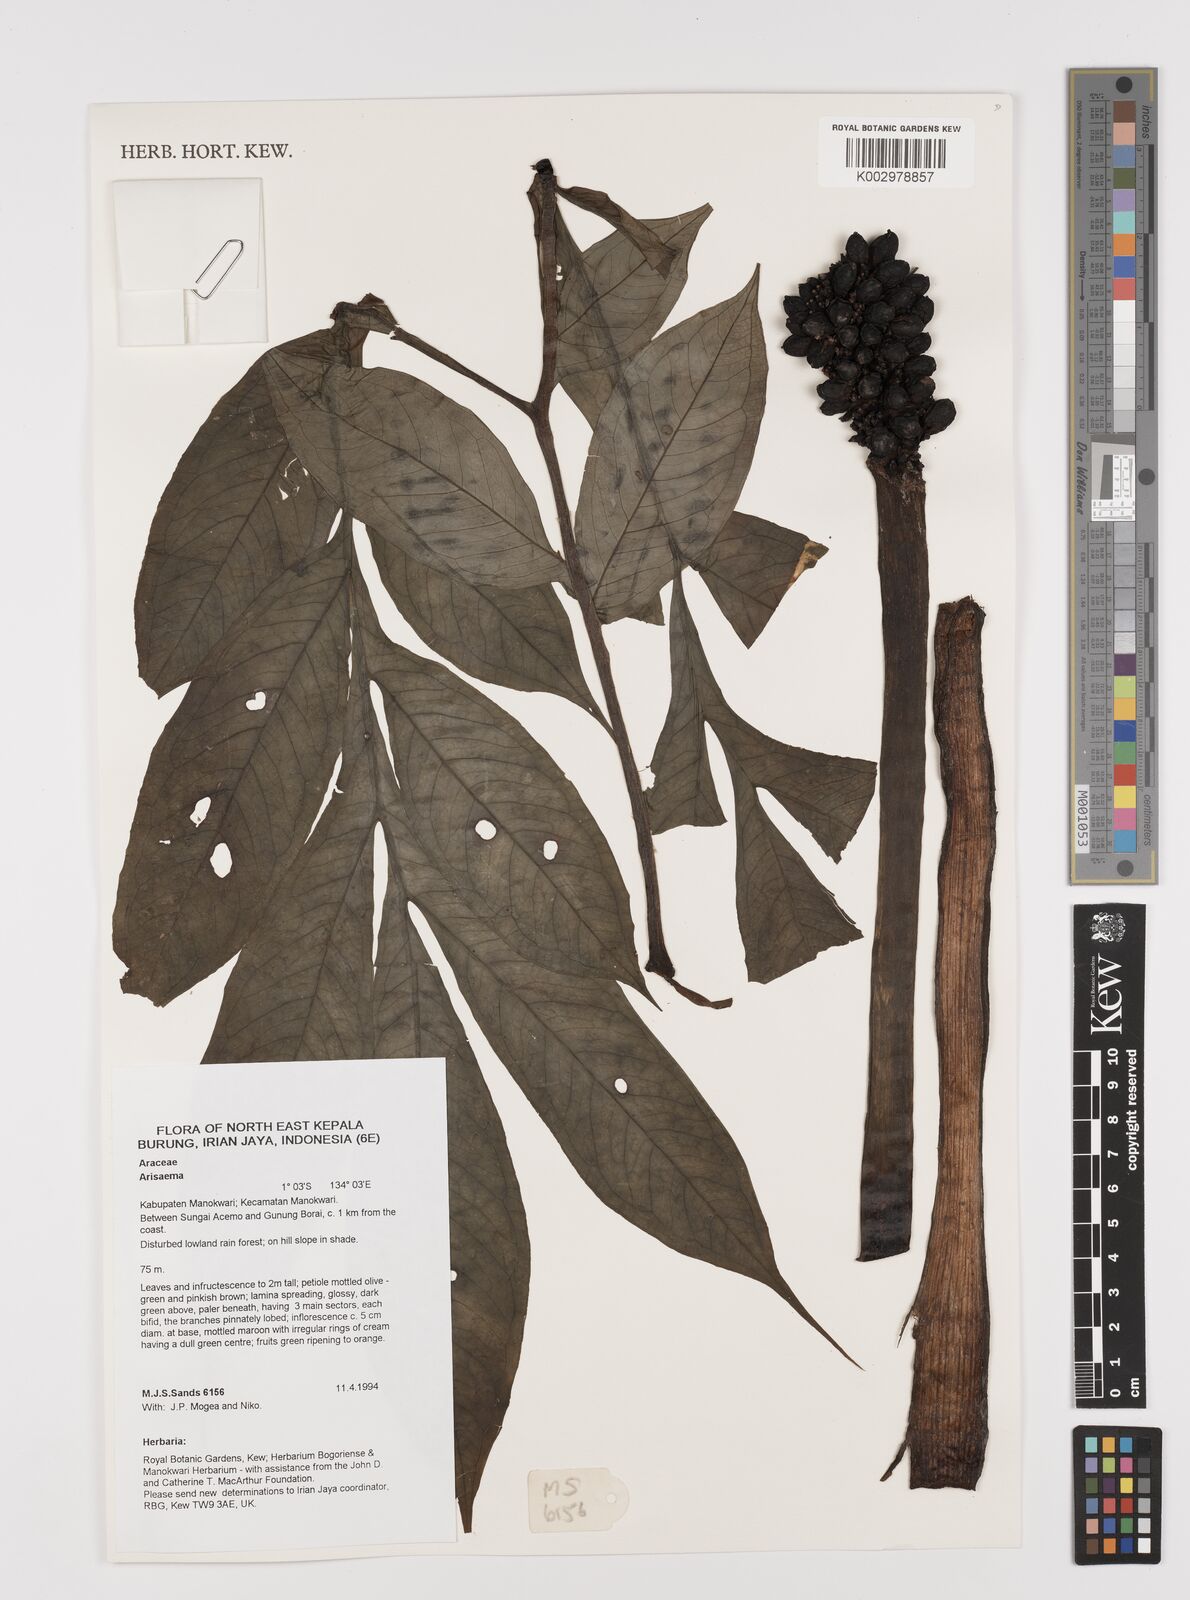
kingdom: Plantae
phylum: Tracheophyta
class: Liliopsida
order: Alismatales
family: Araceae
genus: Amorphophallus
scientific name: Amorphophallus
